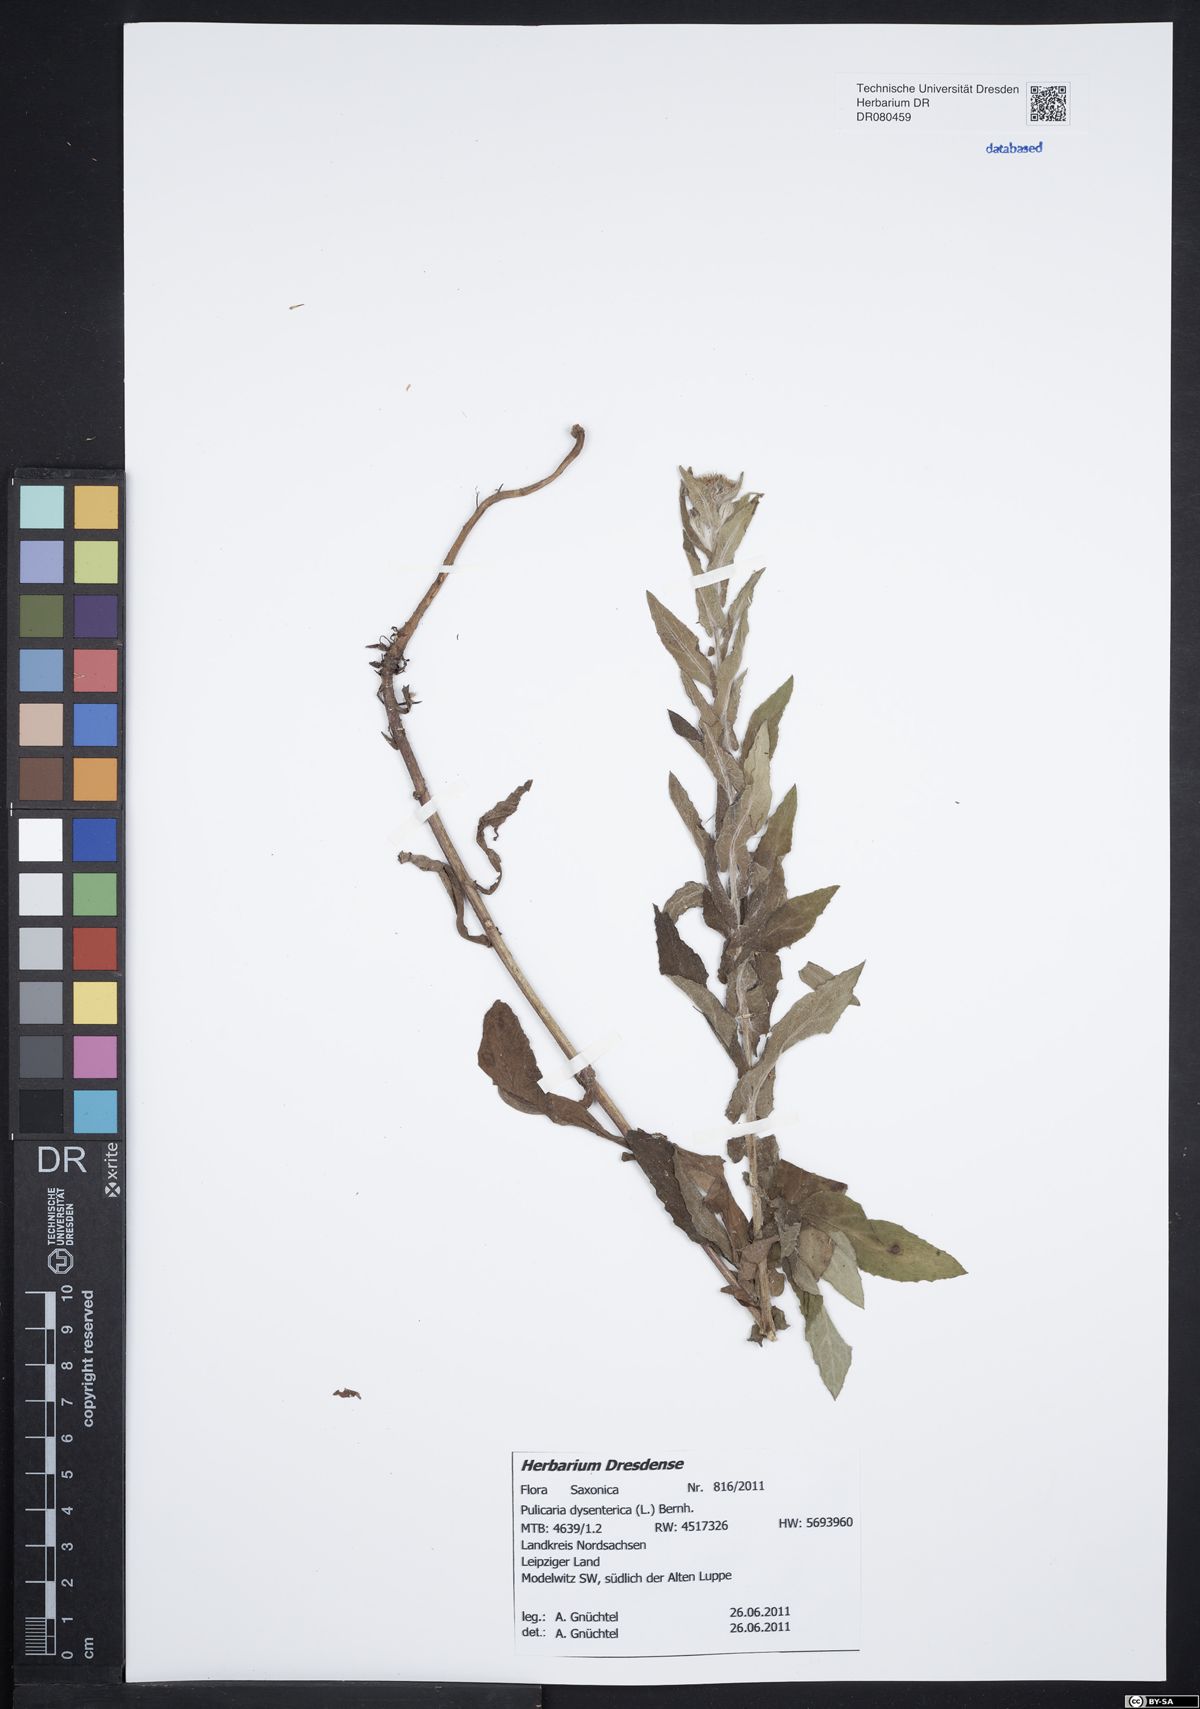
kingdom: Plantae
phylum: Tracheophyta
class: Magnoliopsida
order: Asterales
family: Asteraceae
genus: Pulicaria
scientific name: Pulicaria dysenterica
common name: Common fleabane
